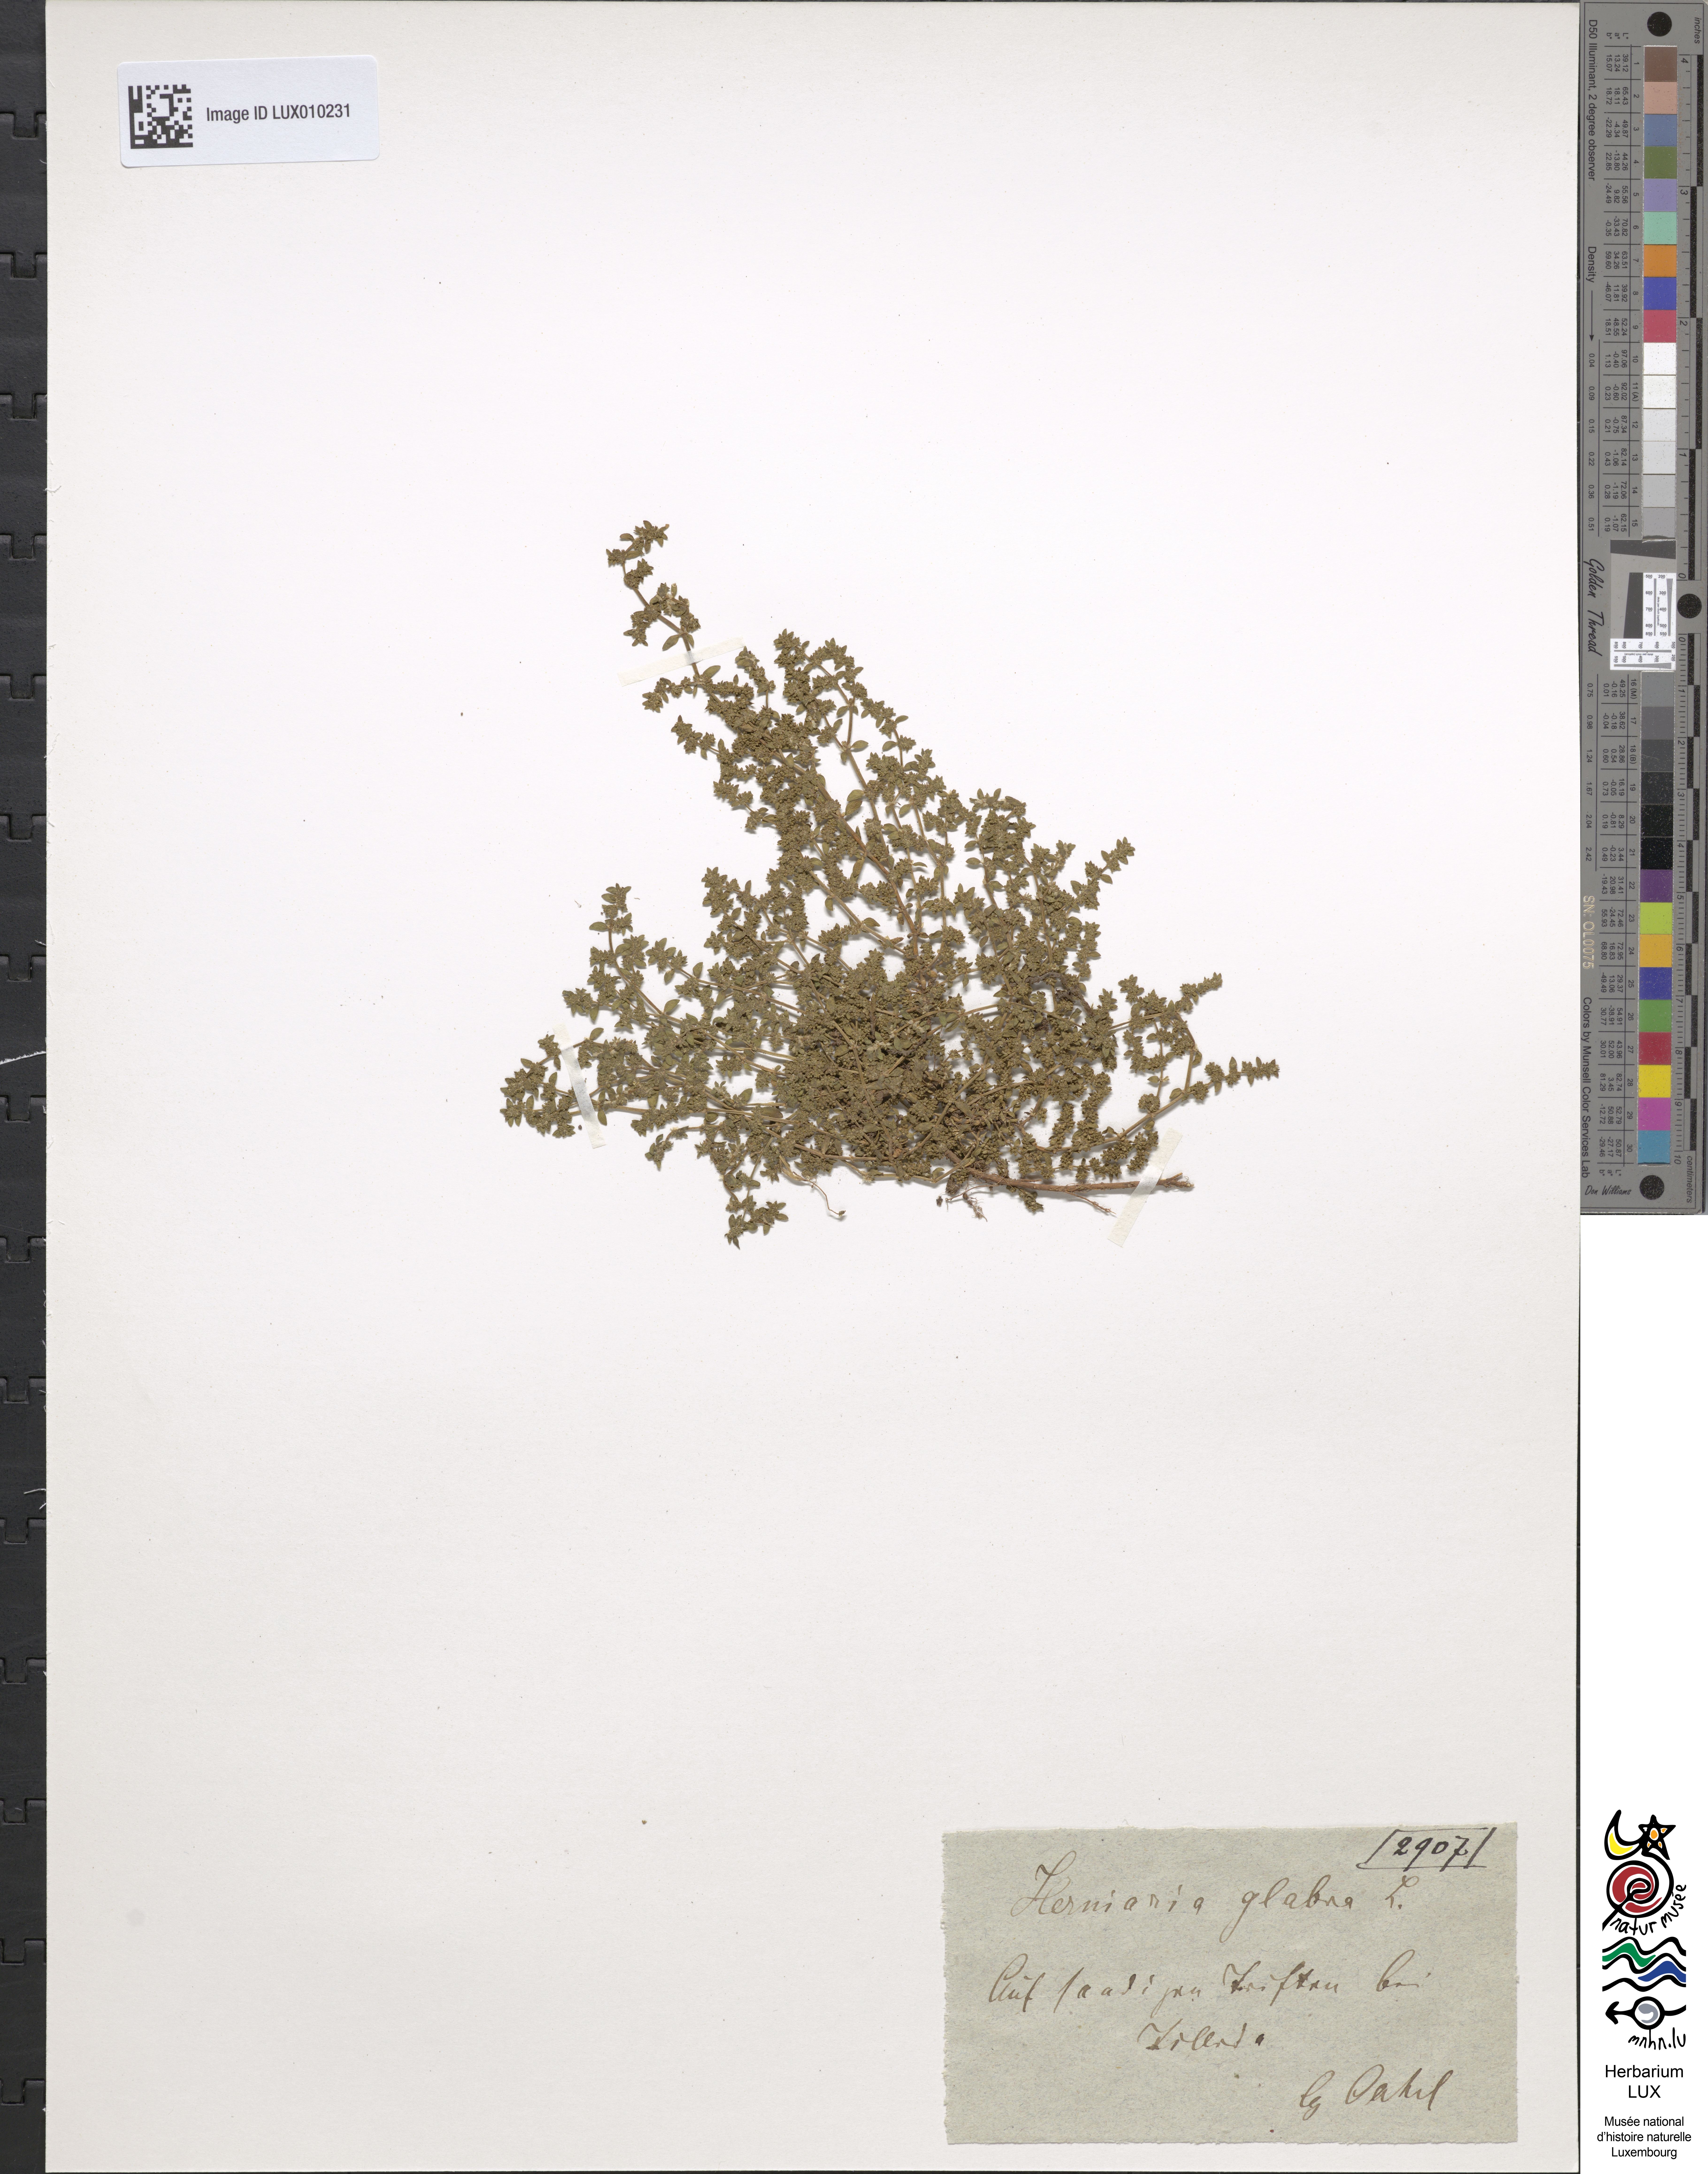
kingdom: Plantae
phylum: Tracheophyta
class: Magnoliopsida
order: Caryophyllales
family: Caryophyllaceae
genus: Herniaria
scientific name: Herniaria glabra
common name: Smooth rupturewort
